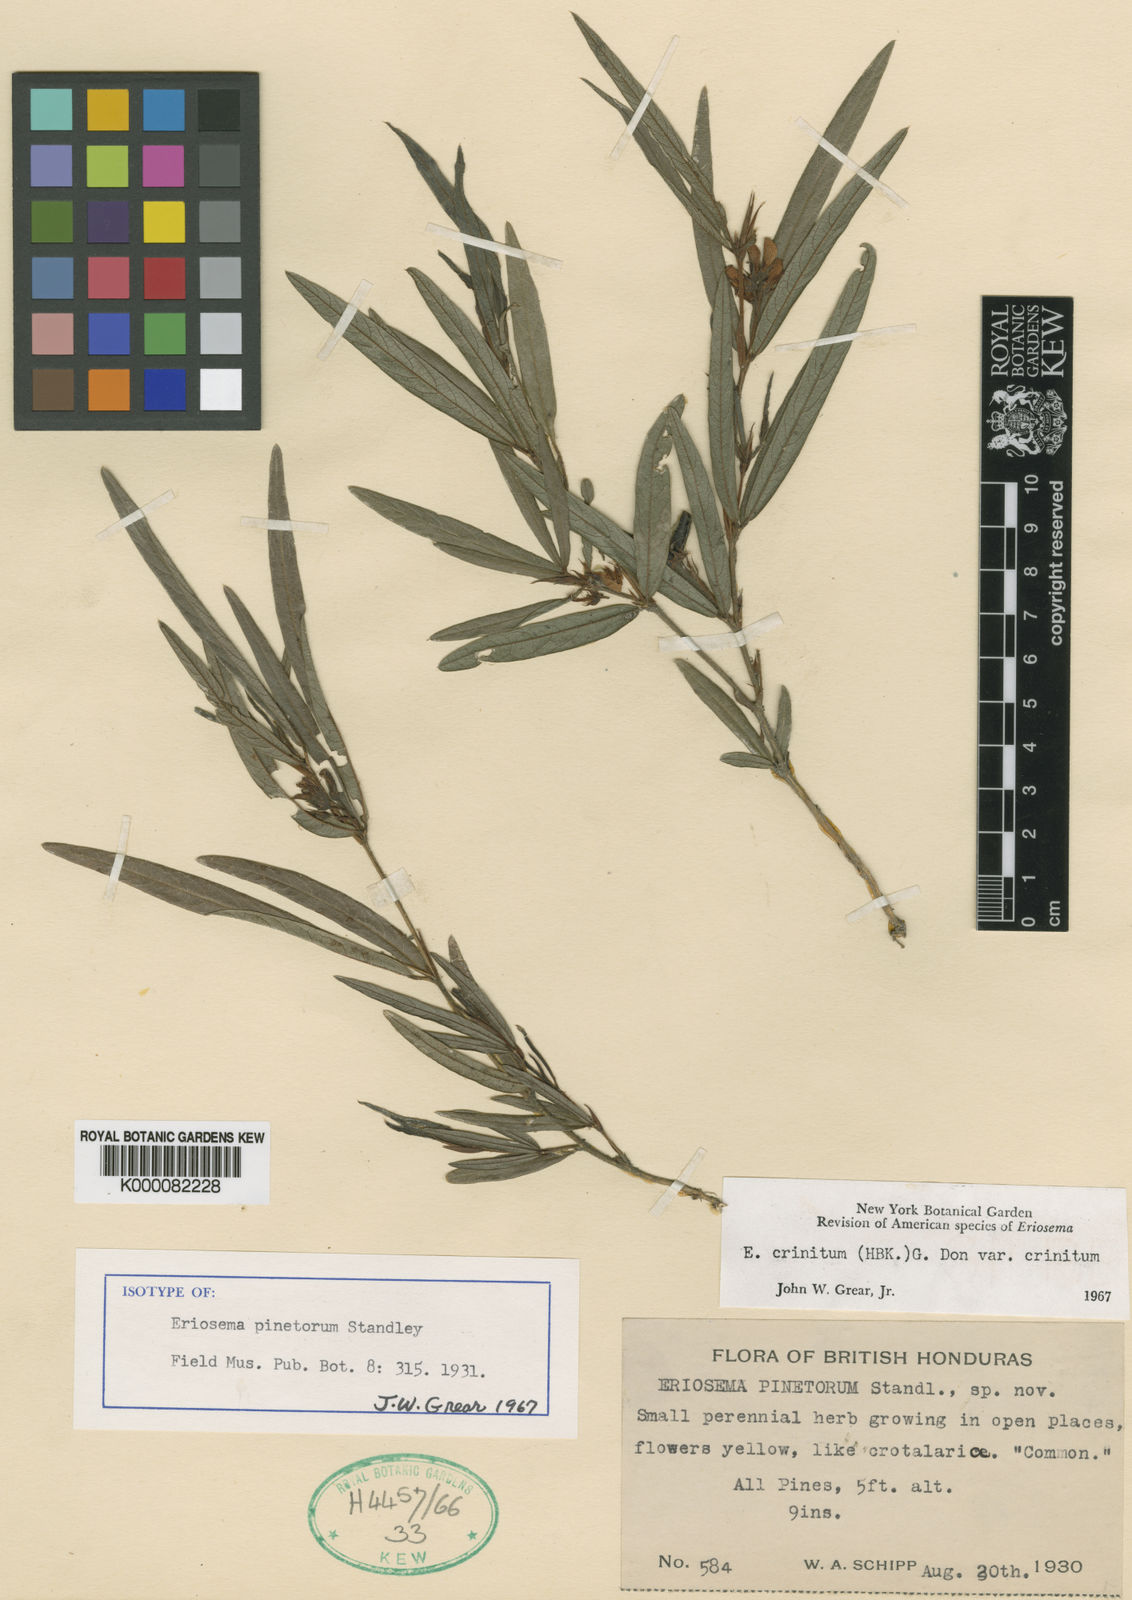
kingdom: Plantae
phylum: Tracheophyta
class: Magnoliopsida
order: Fabales
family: Fabaceae
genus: Eriosema
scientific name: Eriosema crinitum
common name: Sand pea
